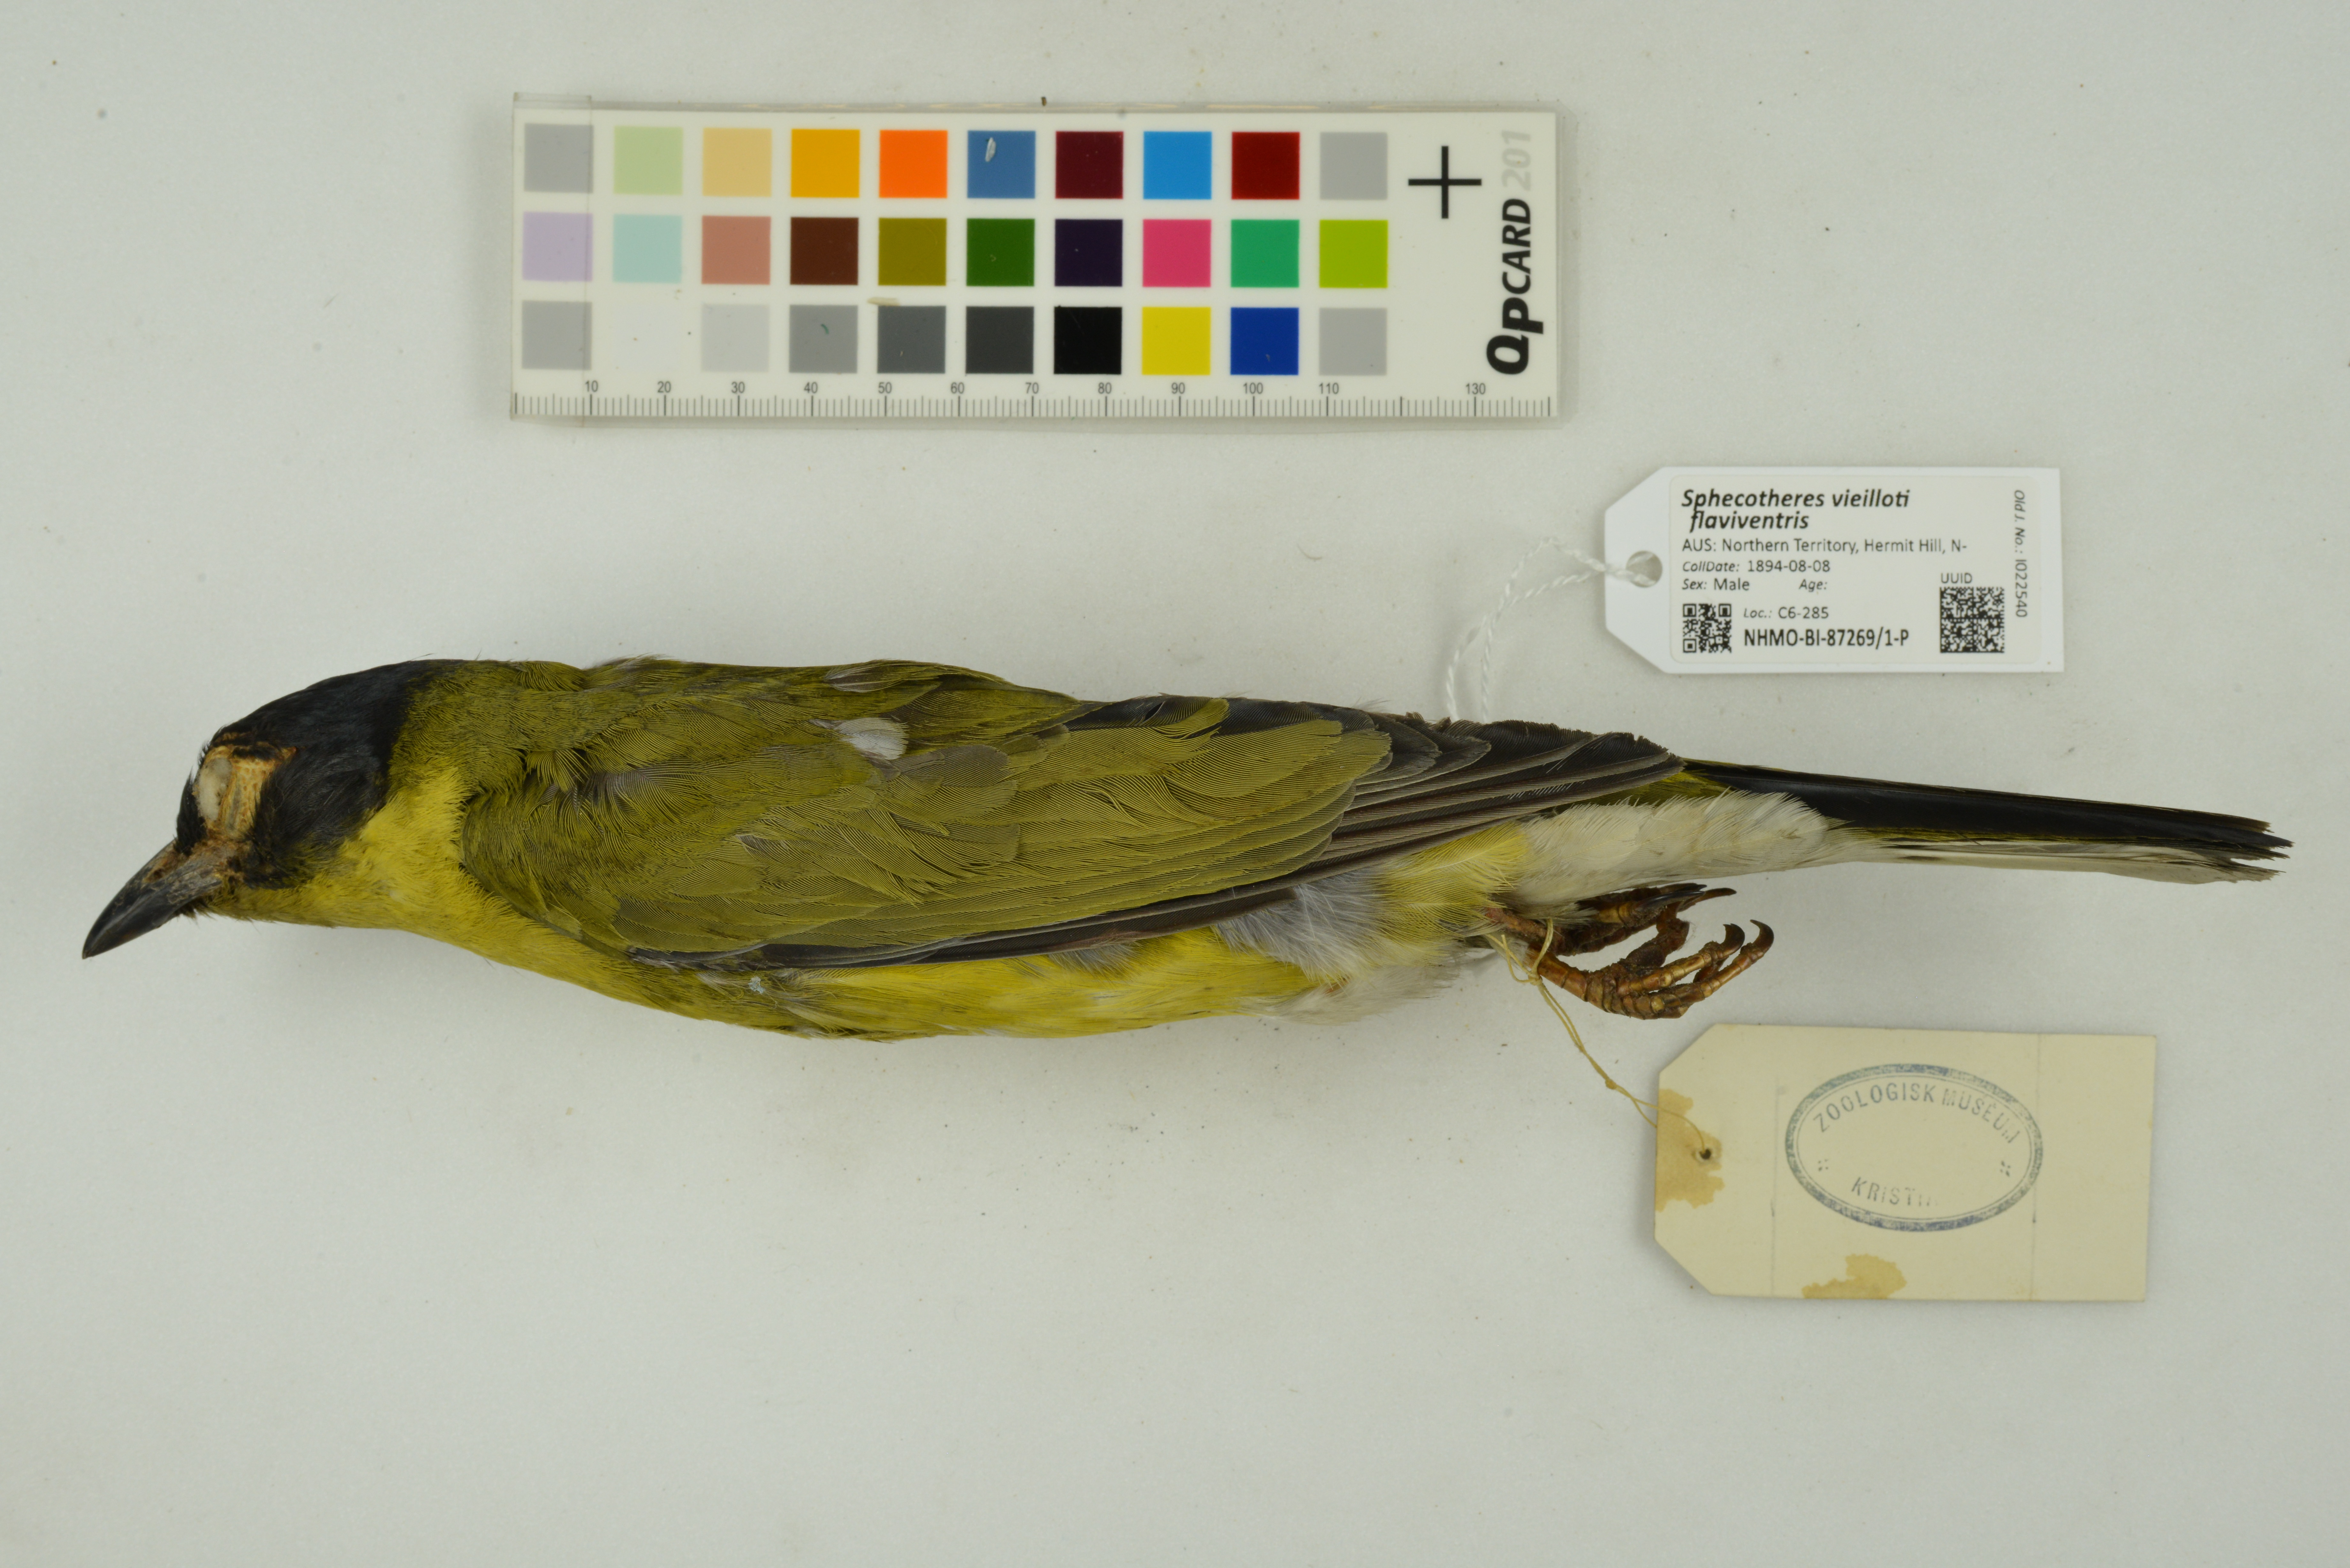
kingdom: Animalia
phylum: Chordata
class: Aves
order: Passeriformes
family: Oriolidae
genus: Sphecotheres
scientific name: Sphecotheres vieilloti
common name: Australasian figbird
